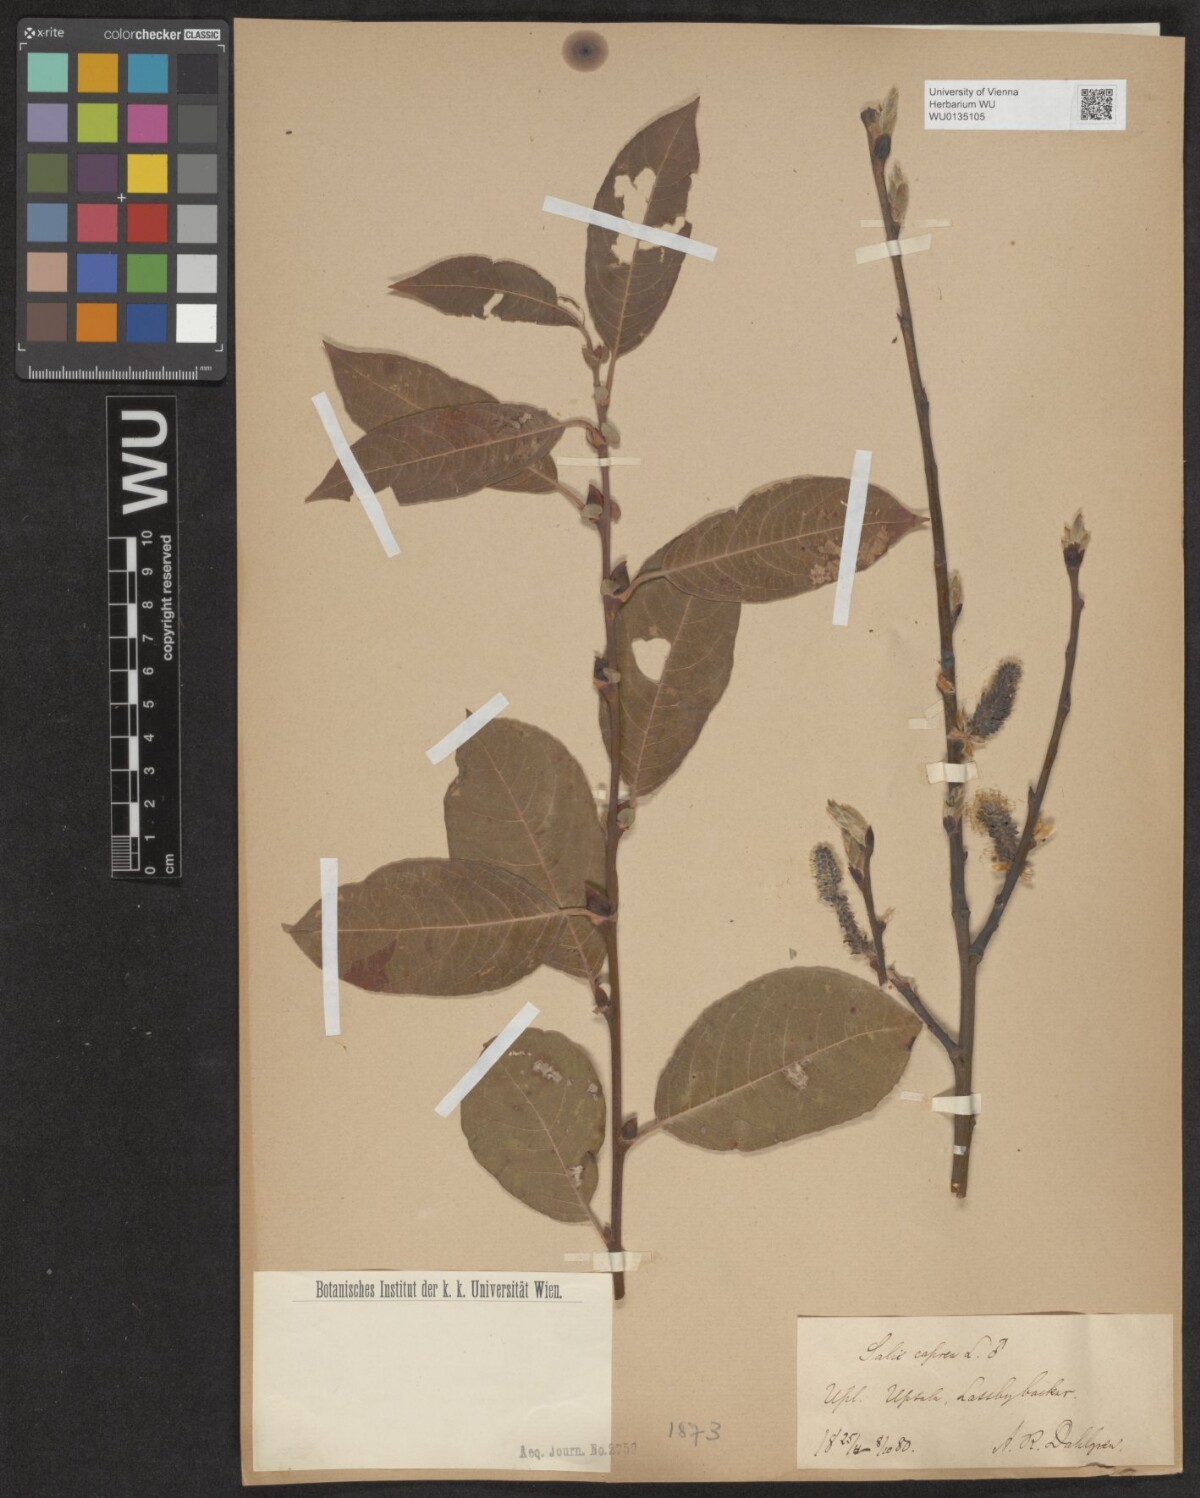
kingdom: Plantae
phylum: Tracheophyta
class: Magnoliopsida
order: Malpighiales
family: Salicaceae
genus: Salix
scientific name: Salix caprea
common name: Goat willow
